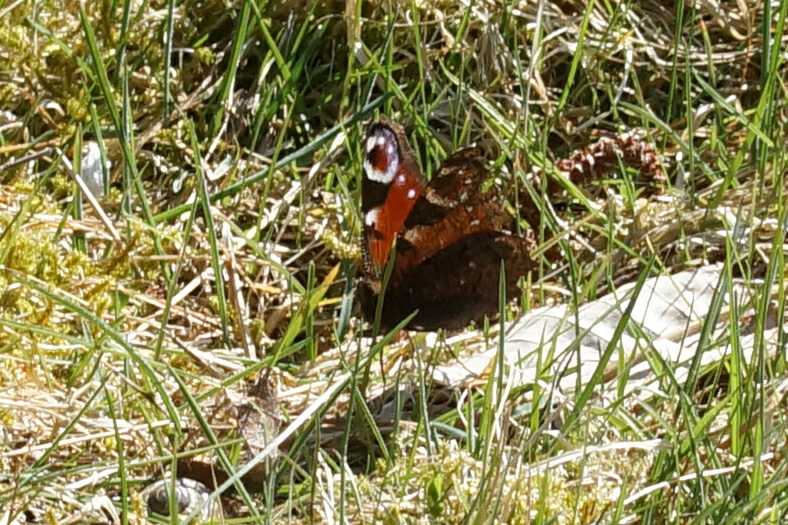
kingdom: Animalia
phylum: Arthropoda
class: Insecta
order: Lepidoptera
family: Nymphalidae
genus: Aglais
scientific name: Aglais io
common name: Dagpåfugleøje
